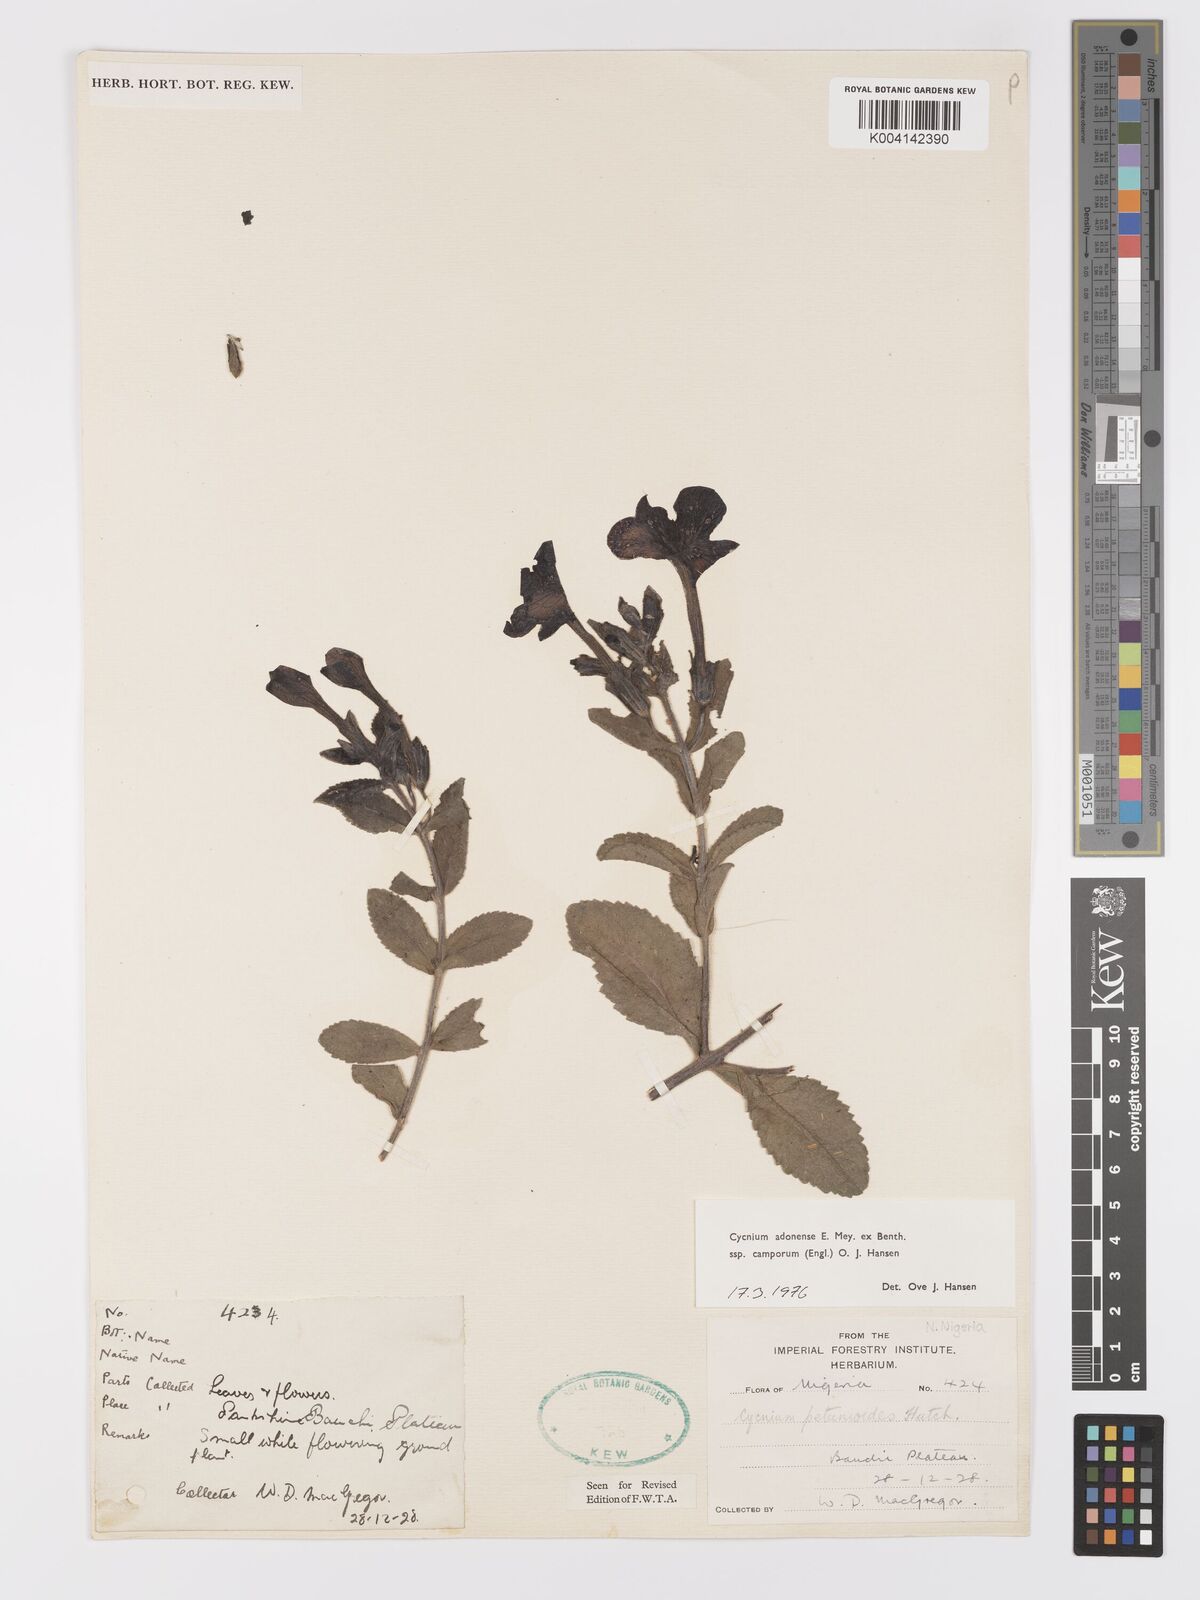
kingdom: Plantae
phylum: Tracheophyta
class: Magnoliopsida
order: Lamiales
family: Orobanchaceae
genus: Cycnium
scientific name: Cycnium adoense
